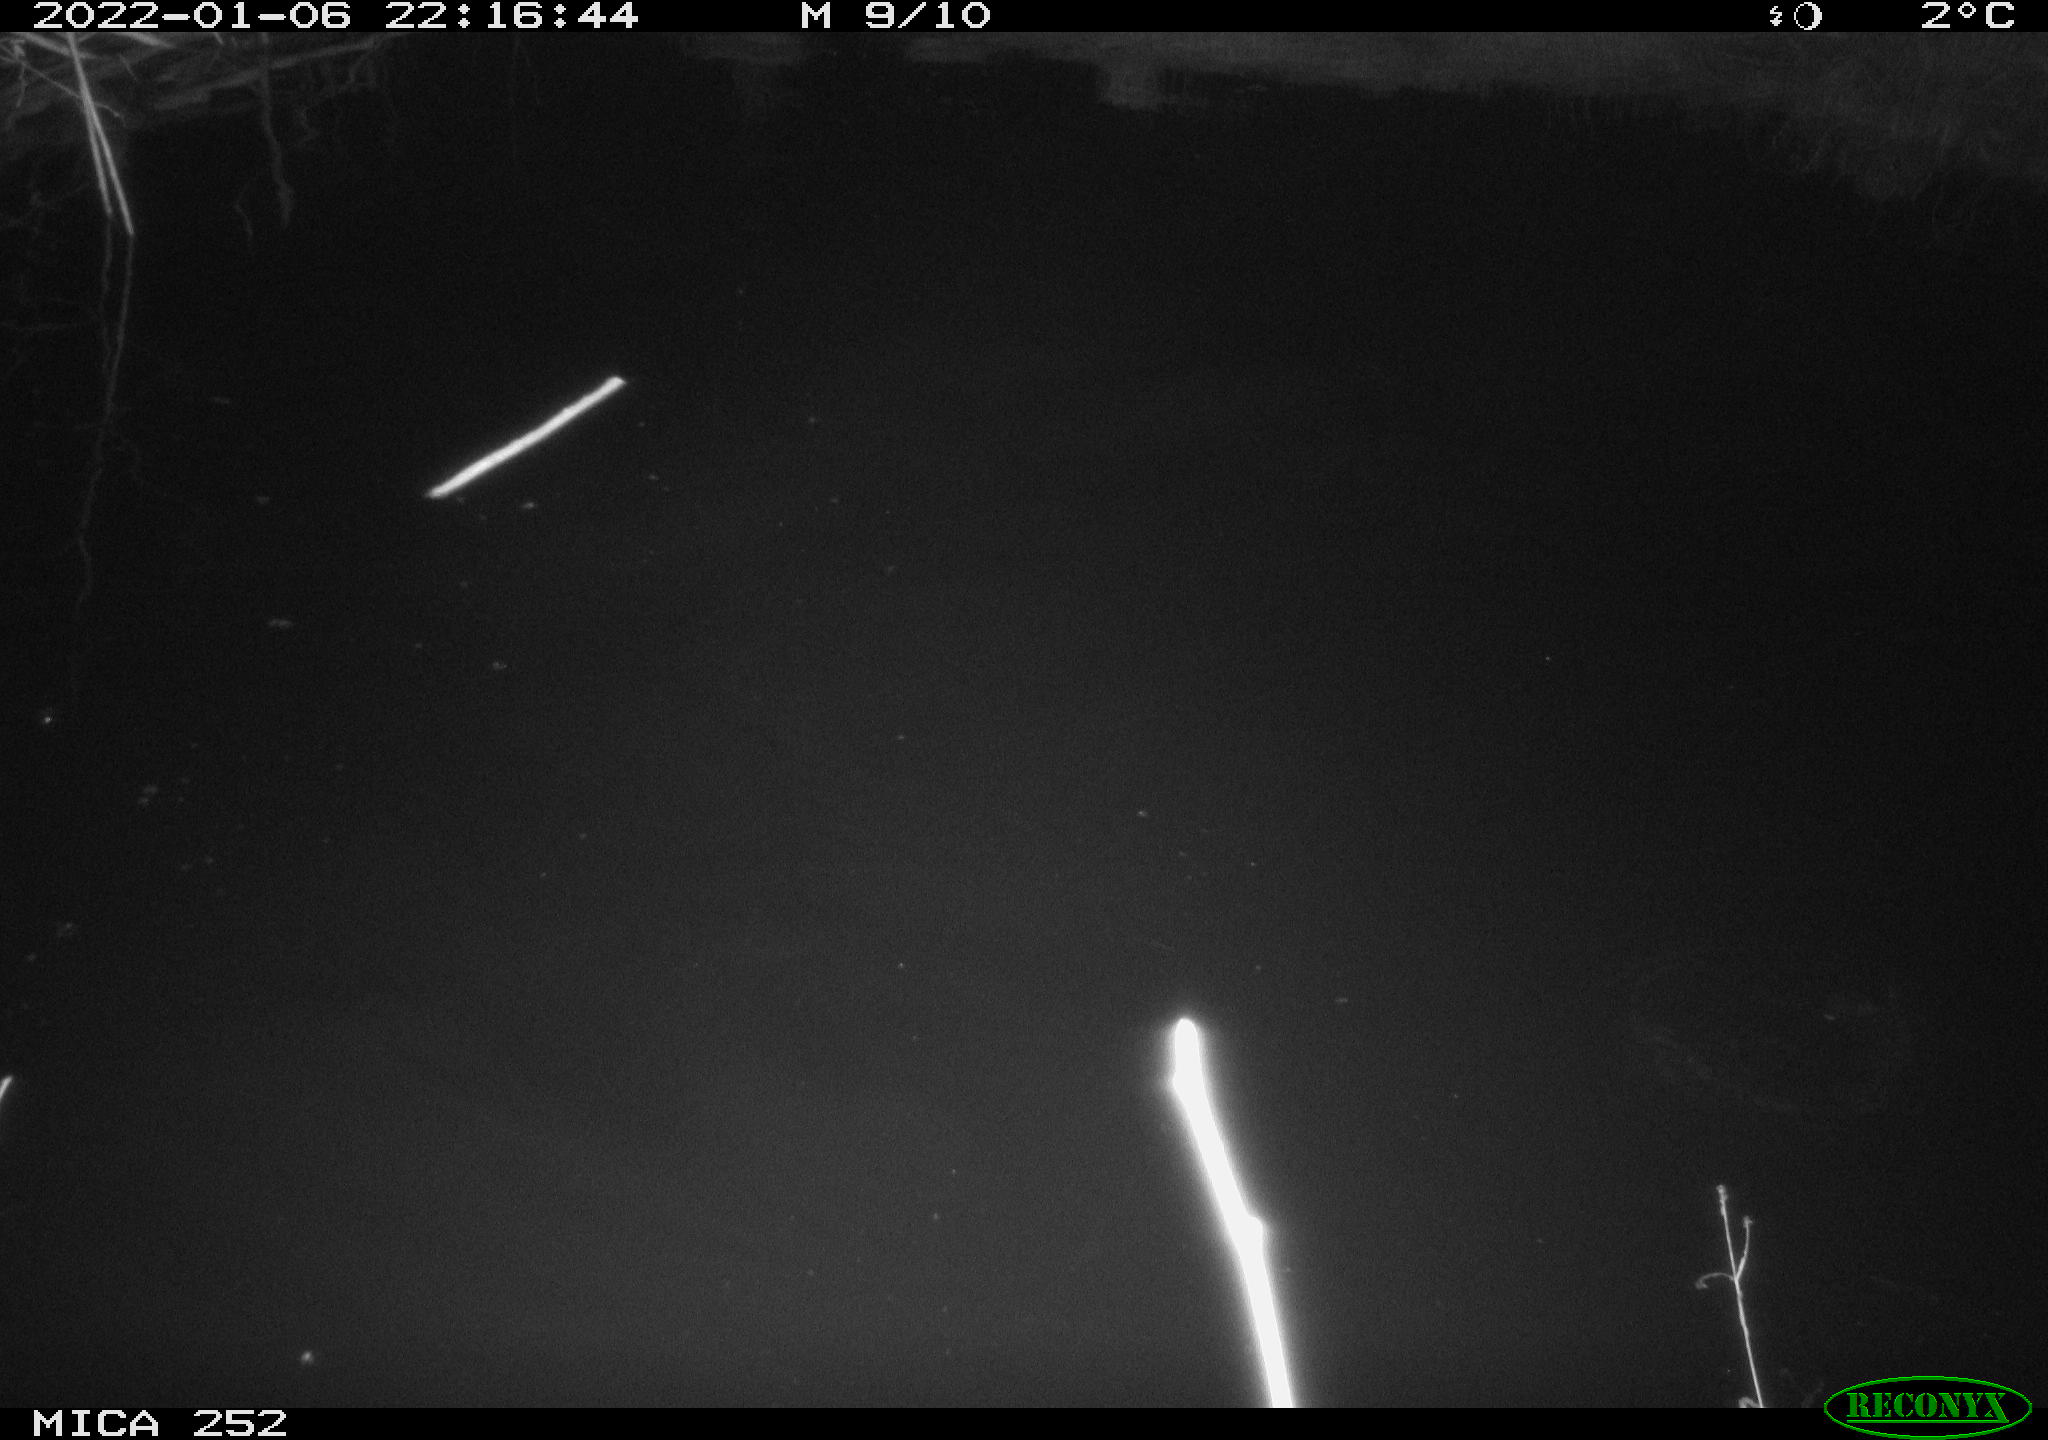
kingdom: Animalia
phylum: Chordata
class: Mammalia
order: Rodentia
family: Castoridae
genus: Castor
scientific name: Castor fiber
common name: Eurasian beaver
